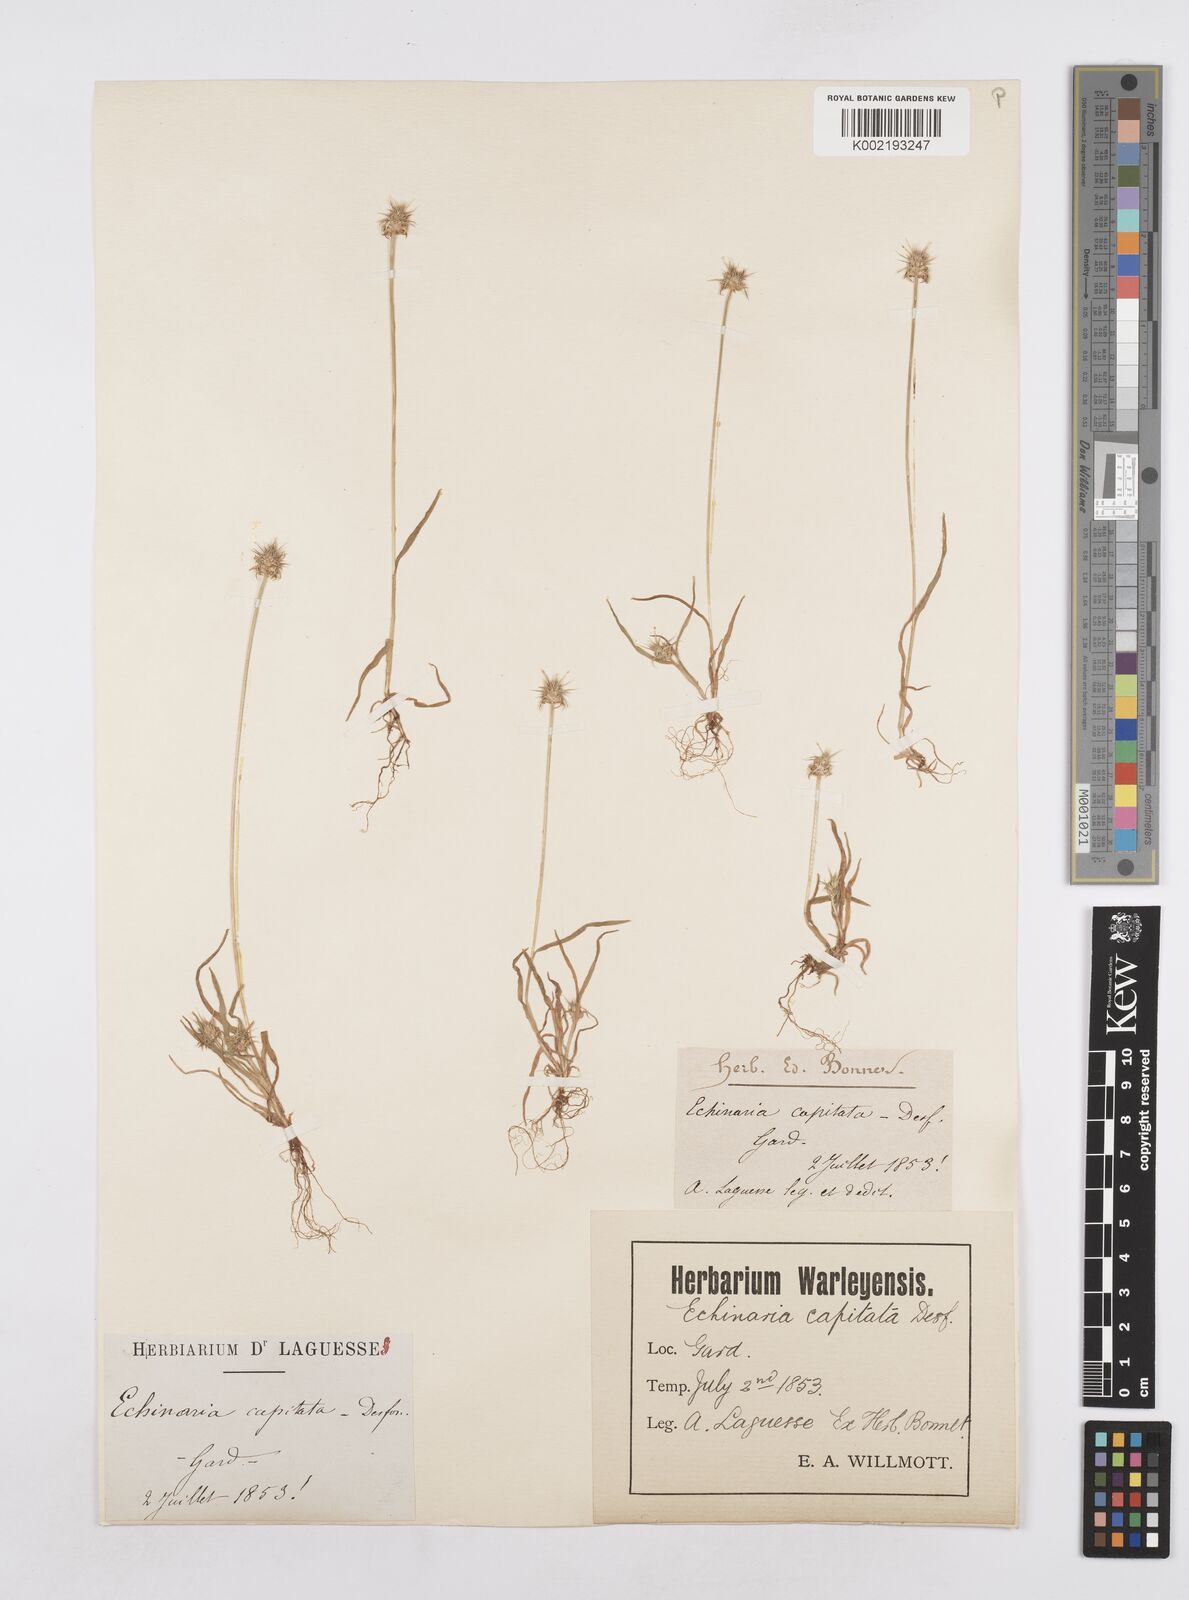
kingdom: Plantae
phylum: Tracheophyta
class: Liliopsida
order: Poales
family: Poaceae
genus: Echinaria
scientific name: Echinaria capitata
